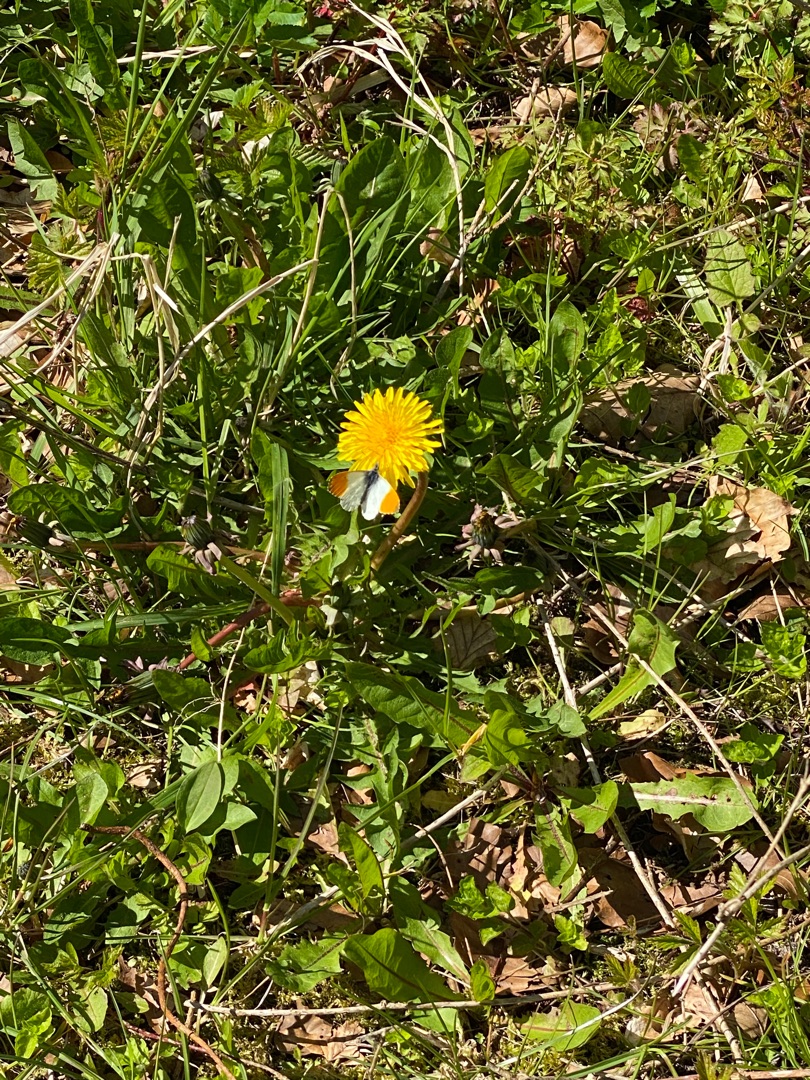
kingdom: Animalia
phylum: Arthropoda
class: Insecta
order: Lepidoptera
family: Pieridae
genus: Anthocharis
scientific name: Anthocharis cardamines
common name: Aurora
